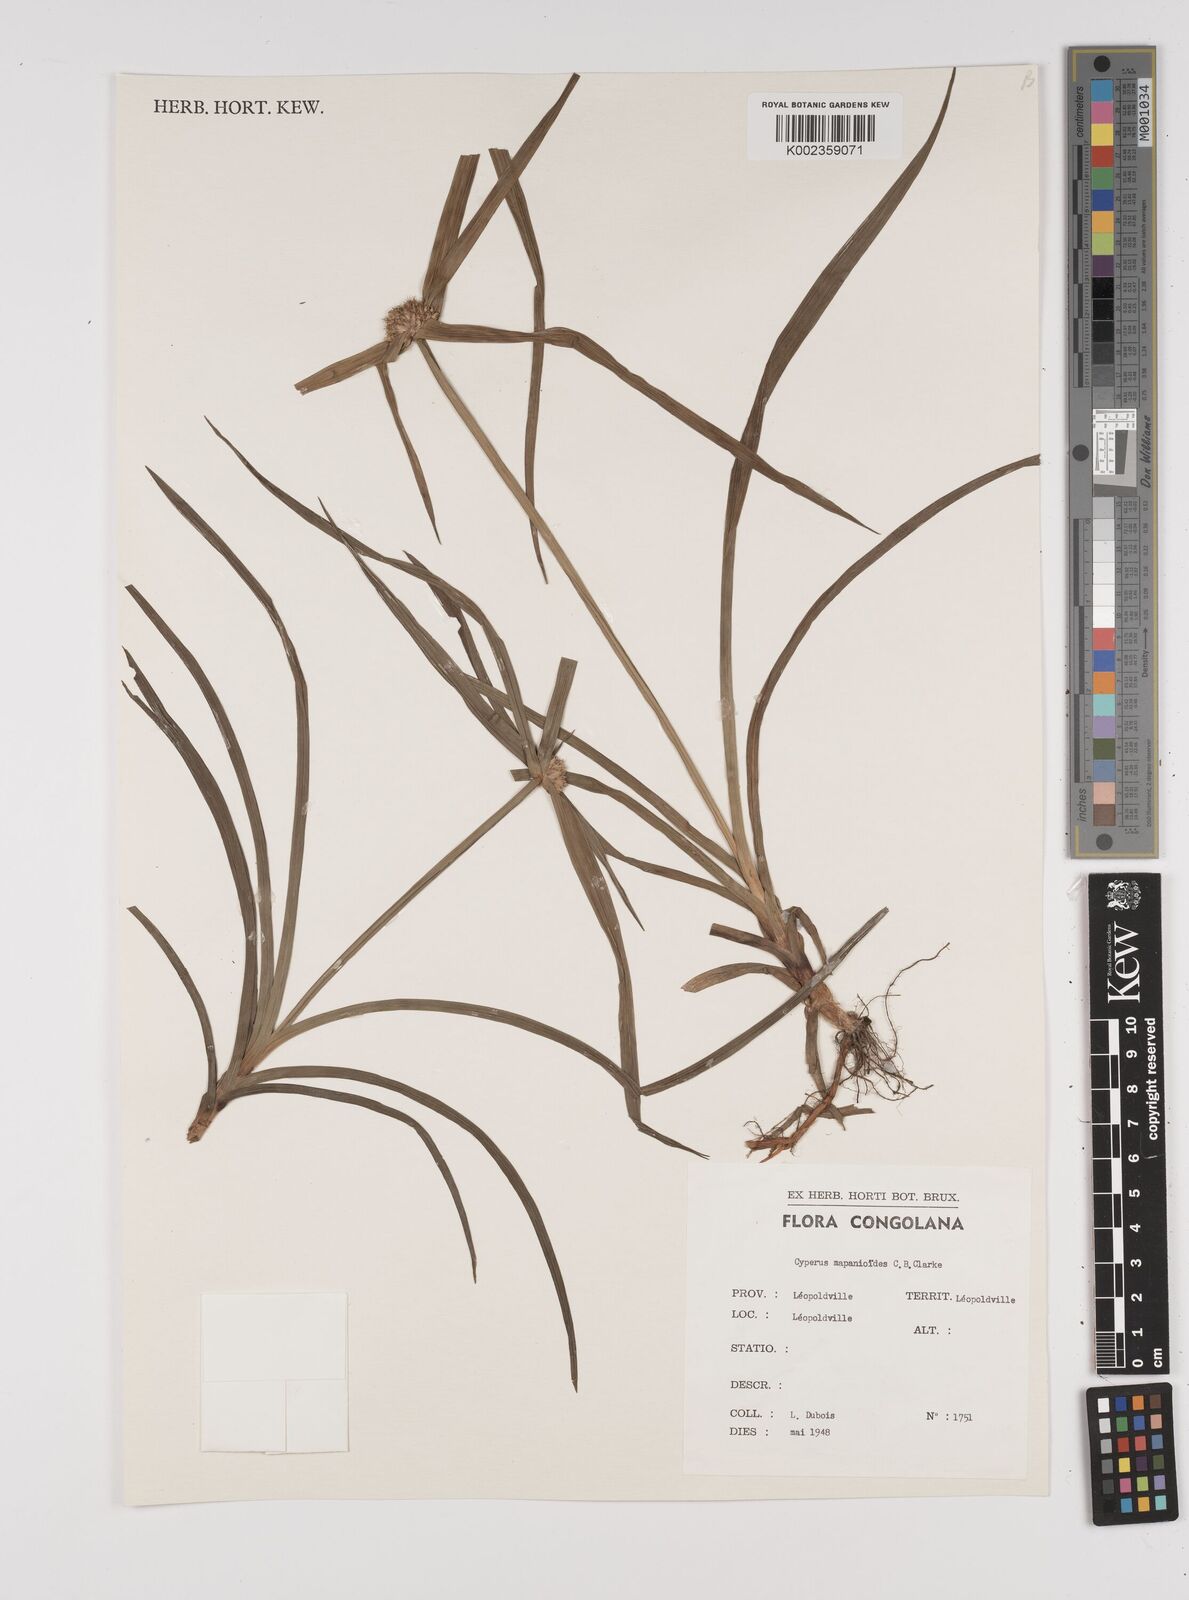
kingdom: Plantae
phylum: Tracheophyta
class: Liliopsida
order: Poales
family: Cyperaceae
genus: Cyperus
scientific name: Cyperus mapanioides
